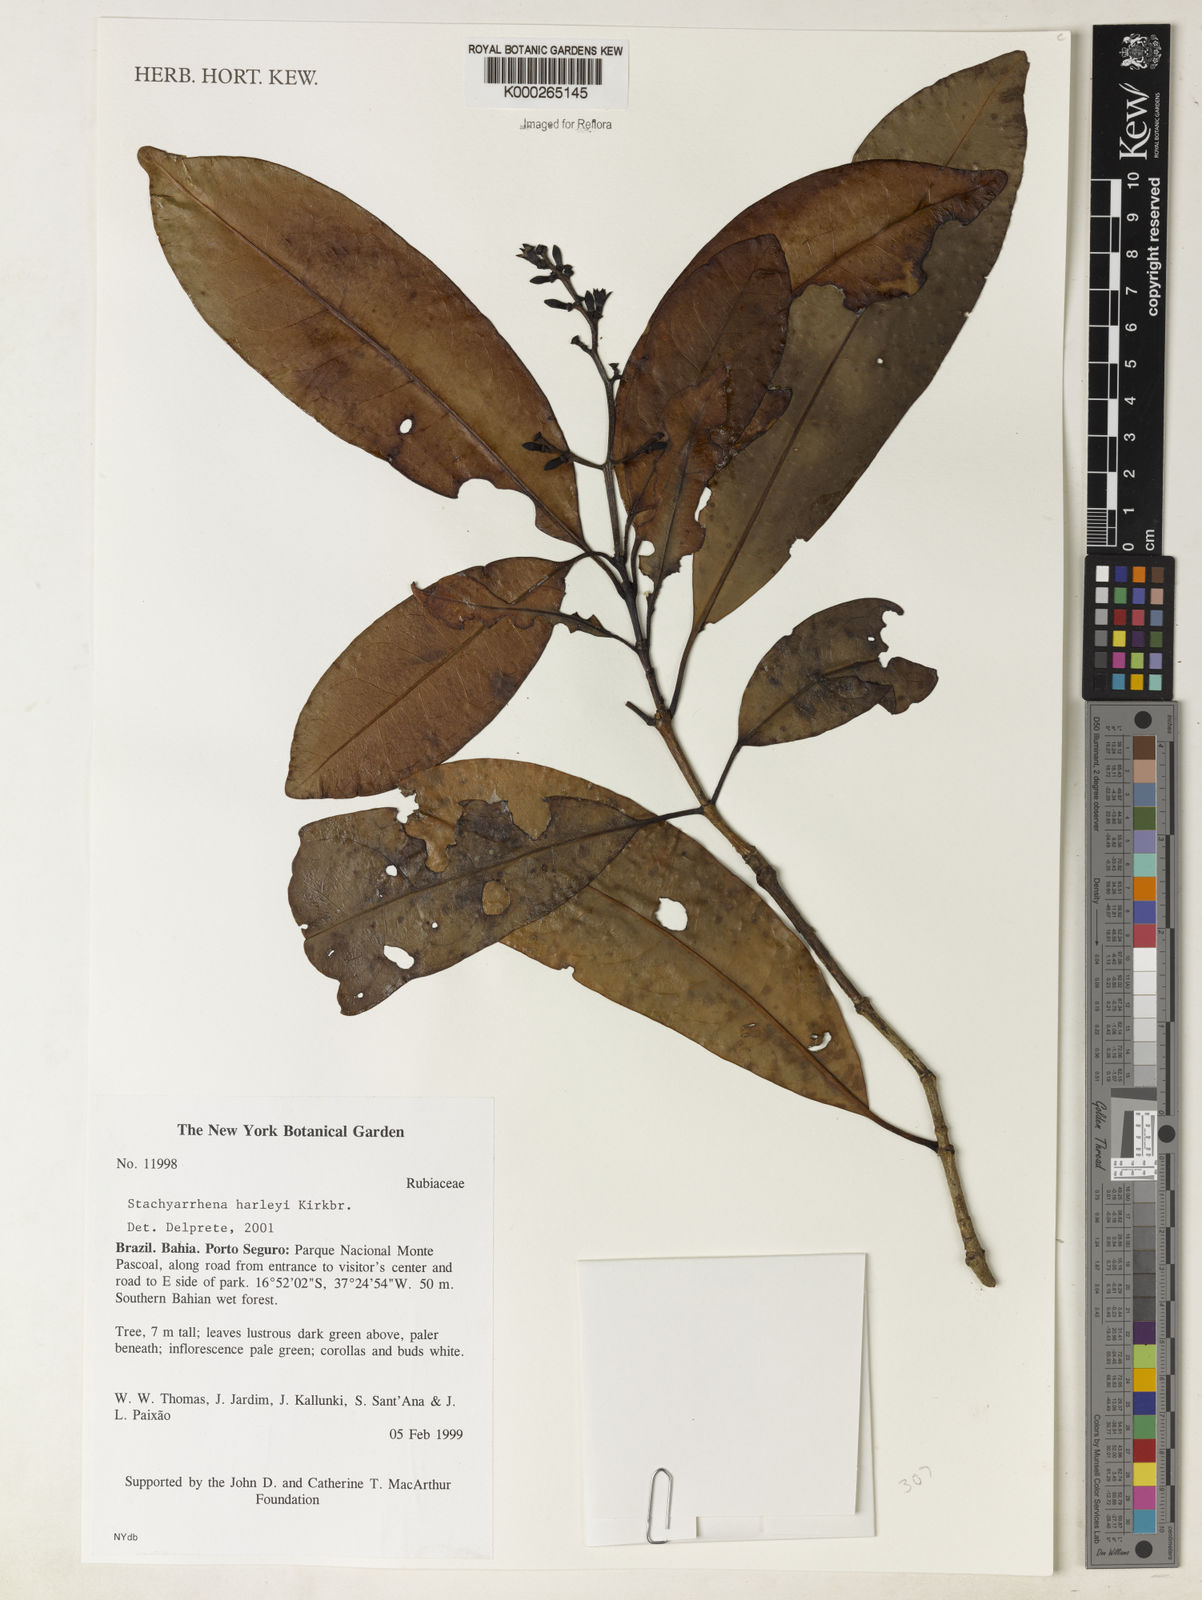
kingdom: Plantae
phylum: Tracheophyta
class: Magnoliopsida
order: Gentianales
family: Rubiaceae
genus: Stachyarrhena
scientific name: Stachyarrhena harleyi
